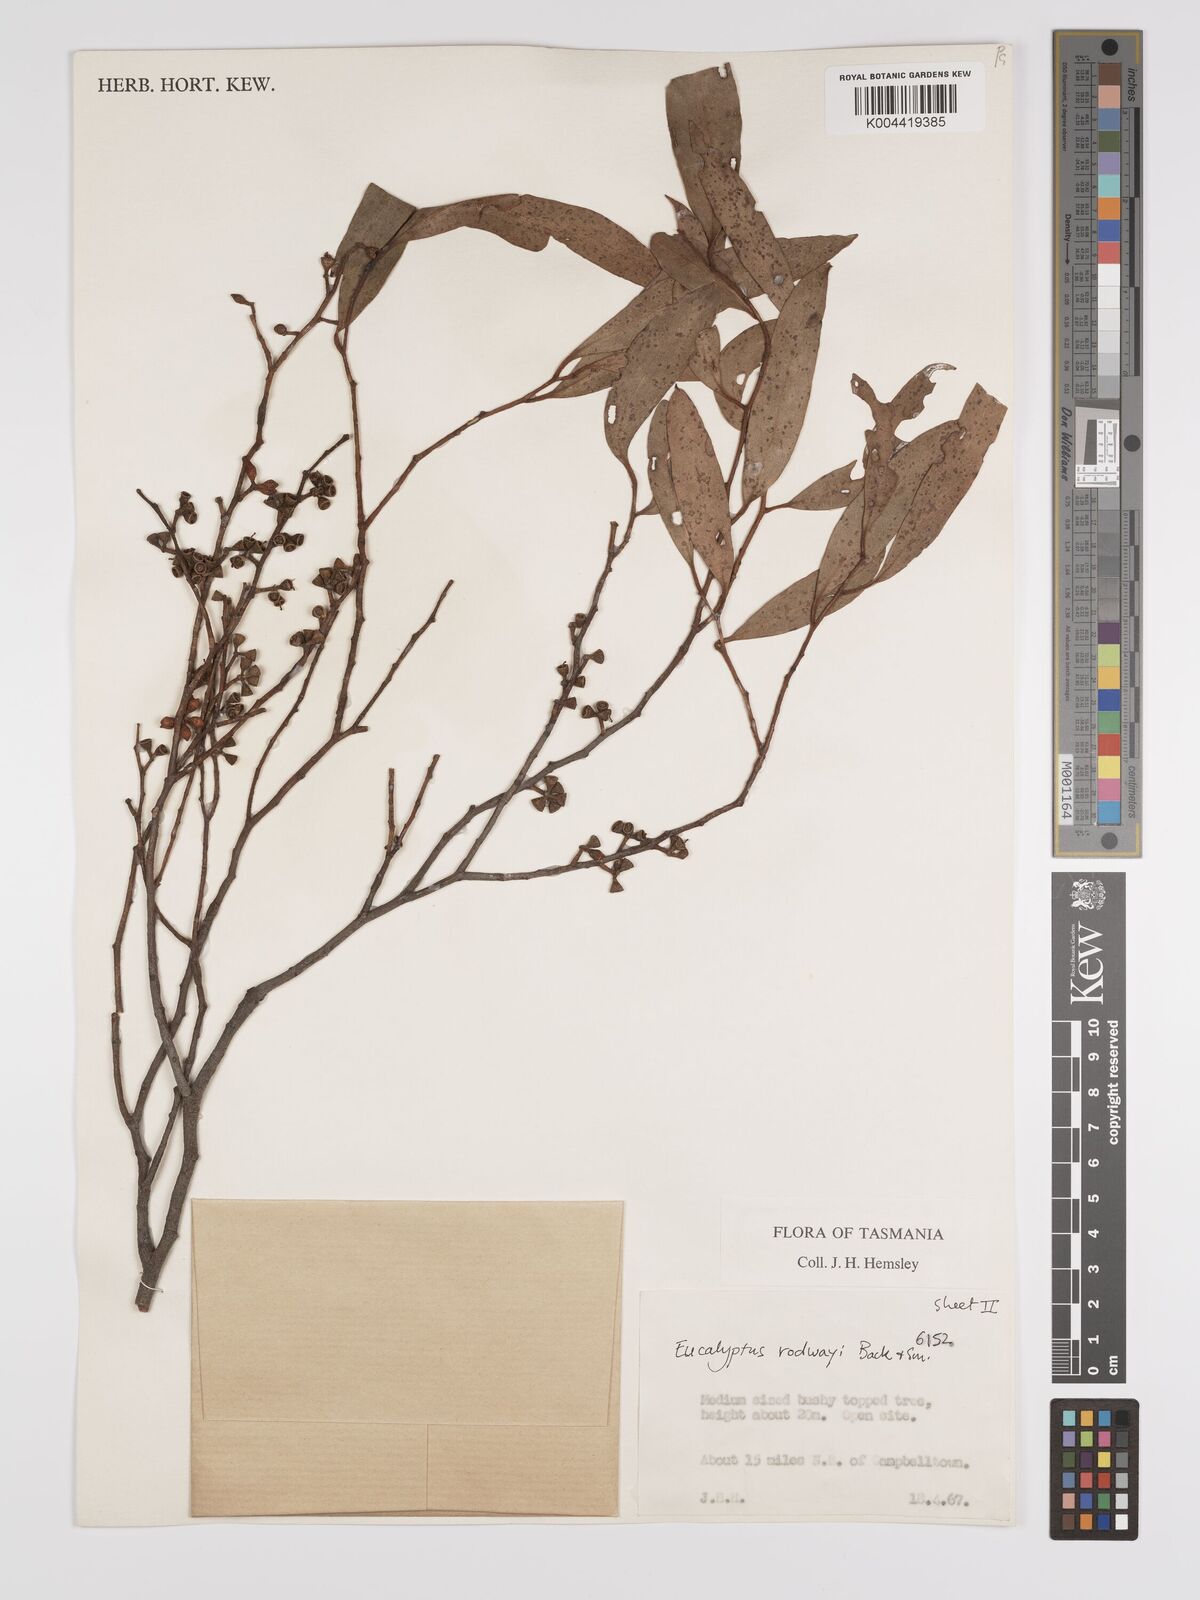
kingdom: Plantae
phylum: Tracheophyta
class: Magnoliopsida
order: Myrtales
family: Myrtaceae
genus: Eucalyptus
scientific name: Eucalyptus rodwayi
